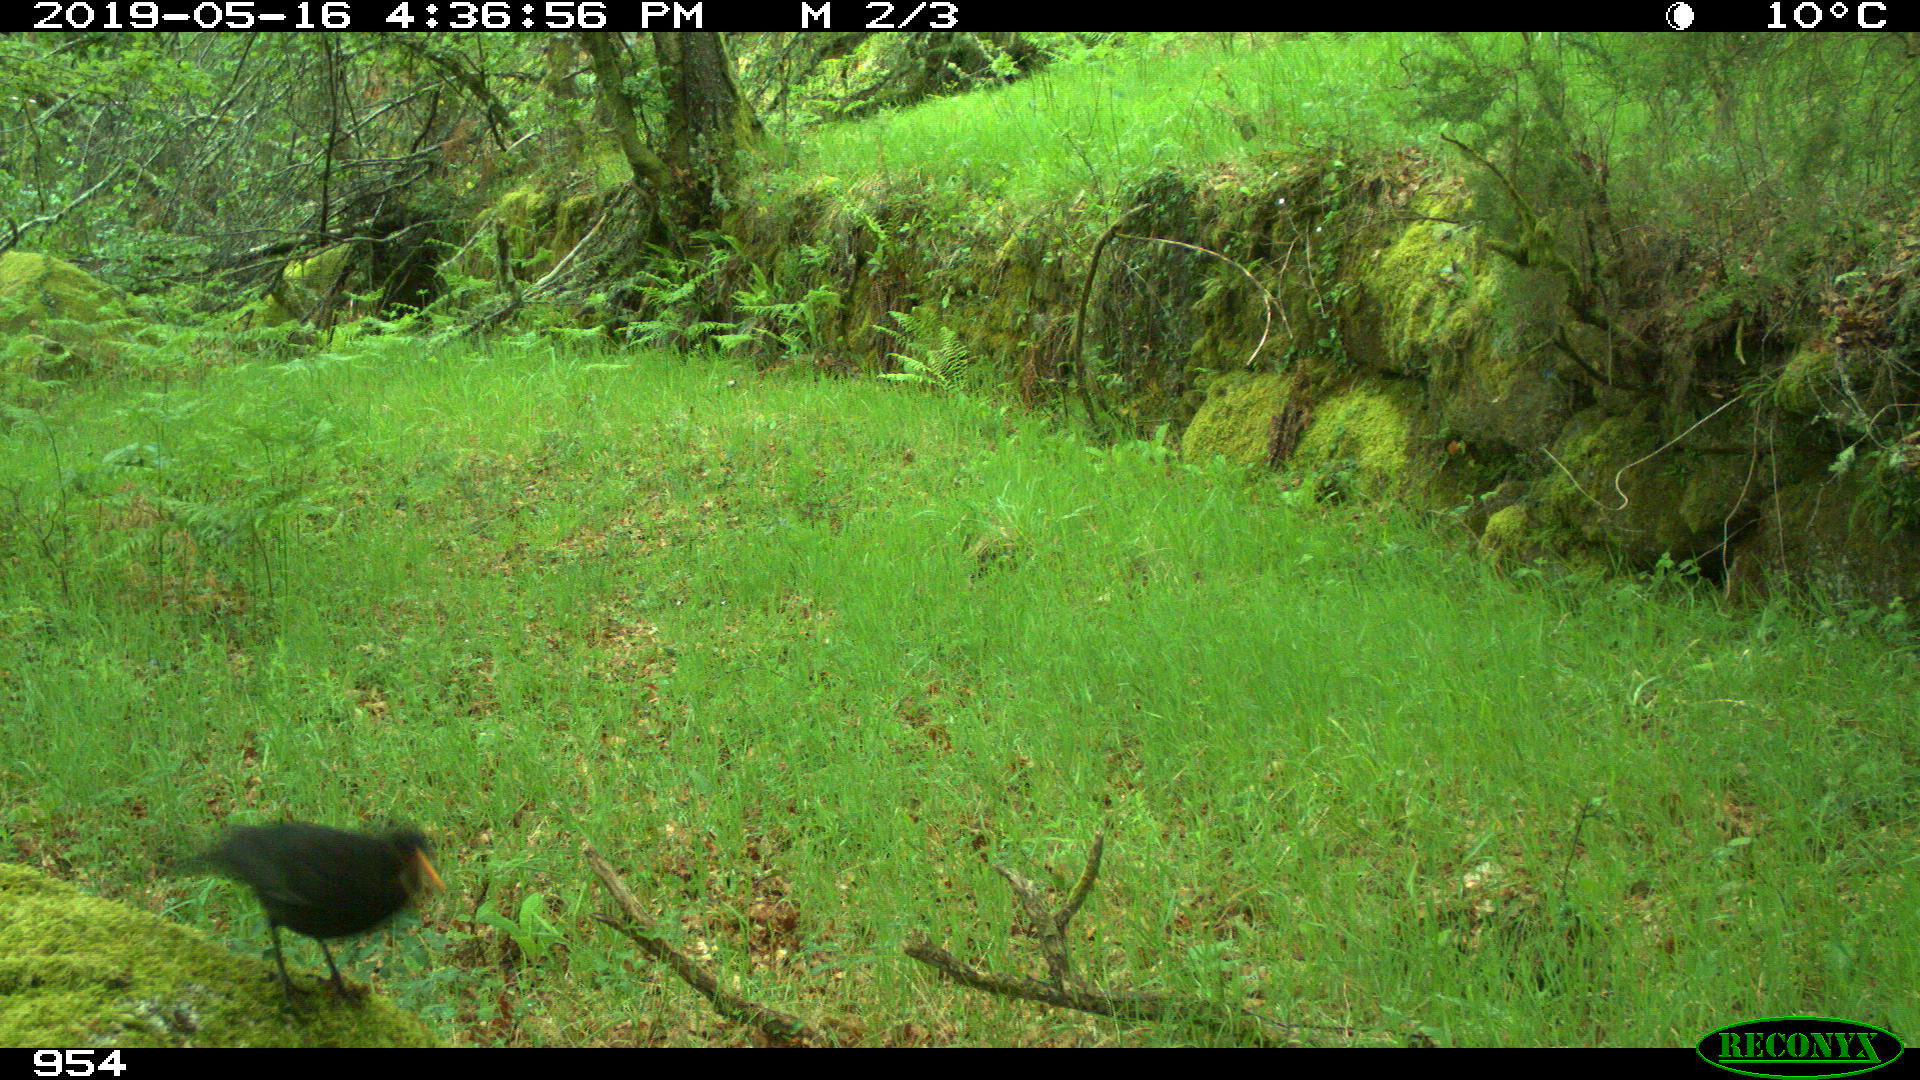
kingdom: Animalia
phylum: Chordata
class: Aves
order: Passeriformes
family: Turdidae
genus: Turdus
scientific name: Turdus merula
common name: Common blackbird
